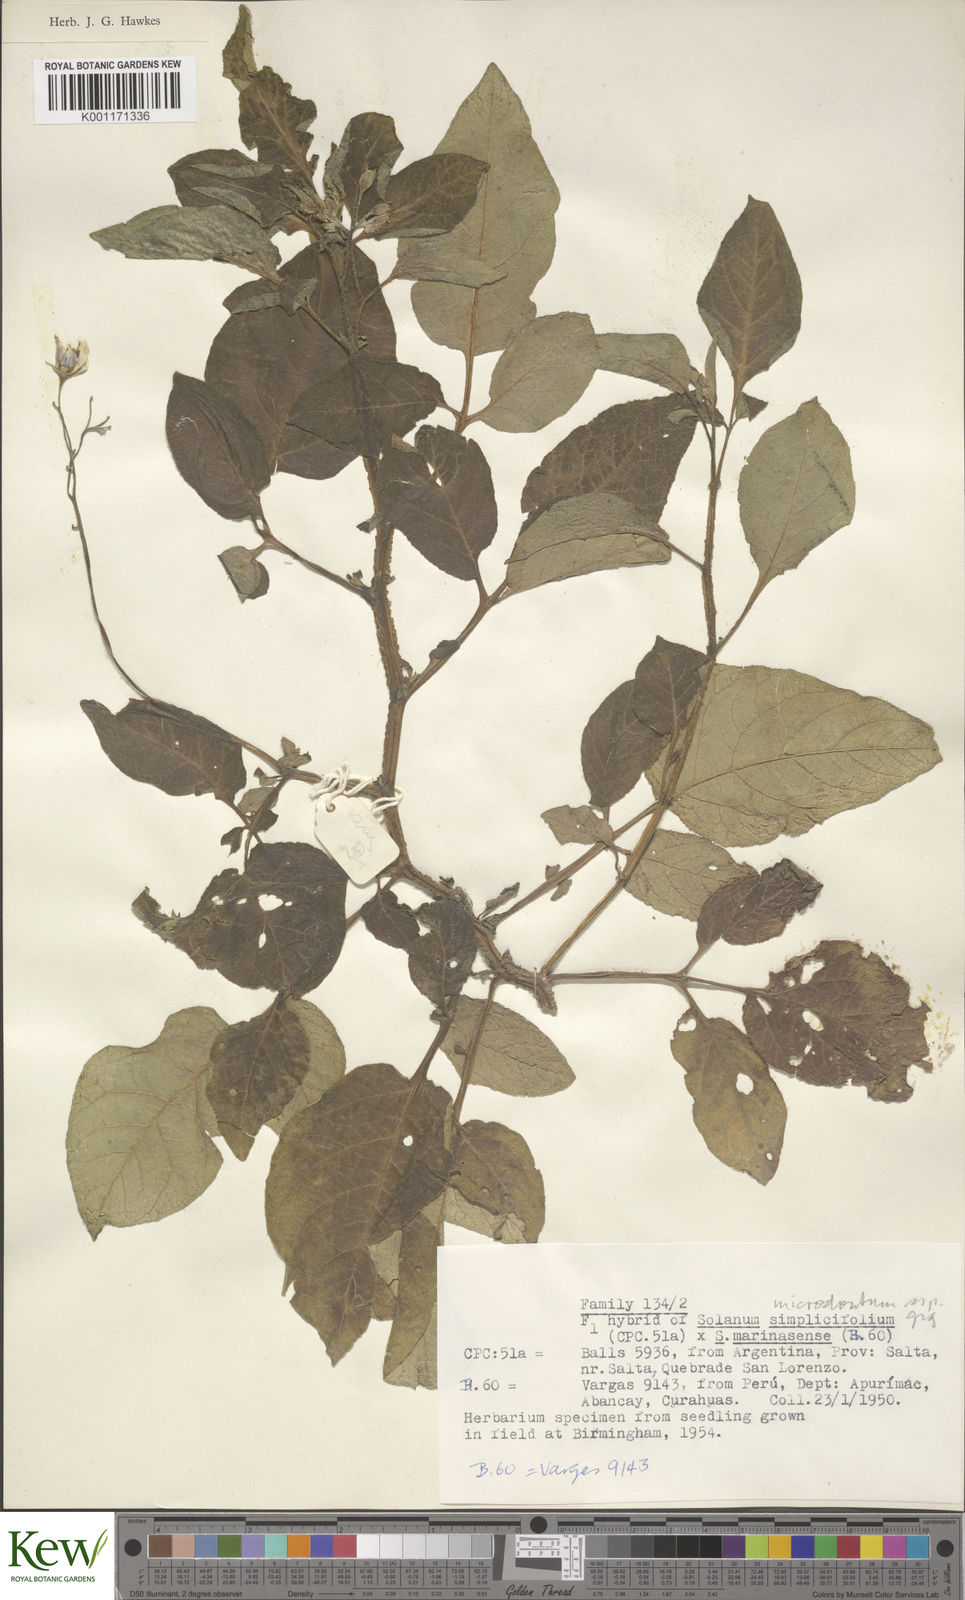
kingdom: Plantae
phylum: Tracheophyta
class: Magnoliopsida
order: Solanales
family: Solanaceae
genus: Solanum
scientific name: Solanum microdontum
